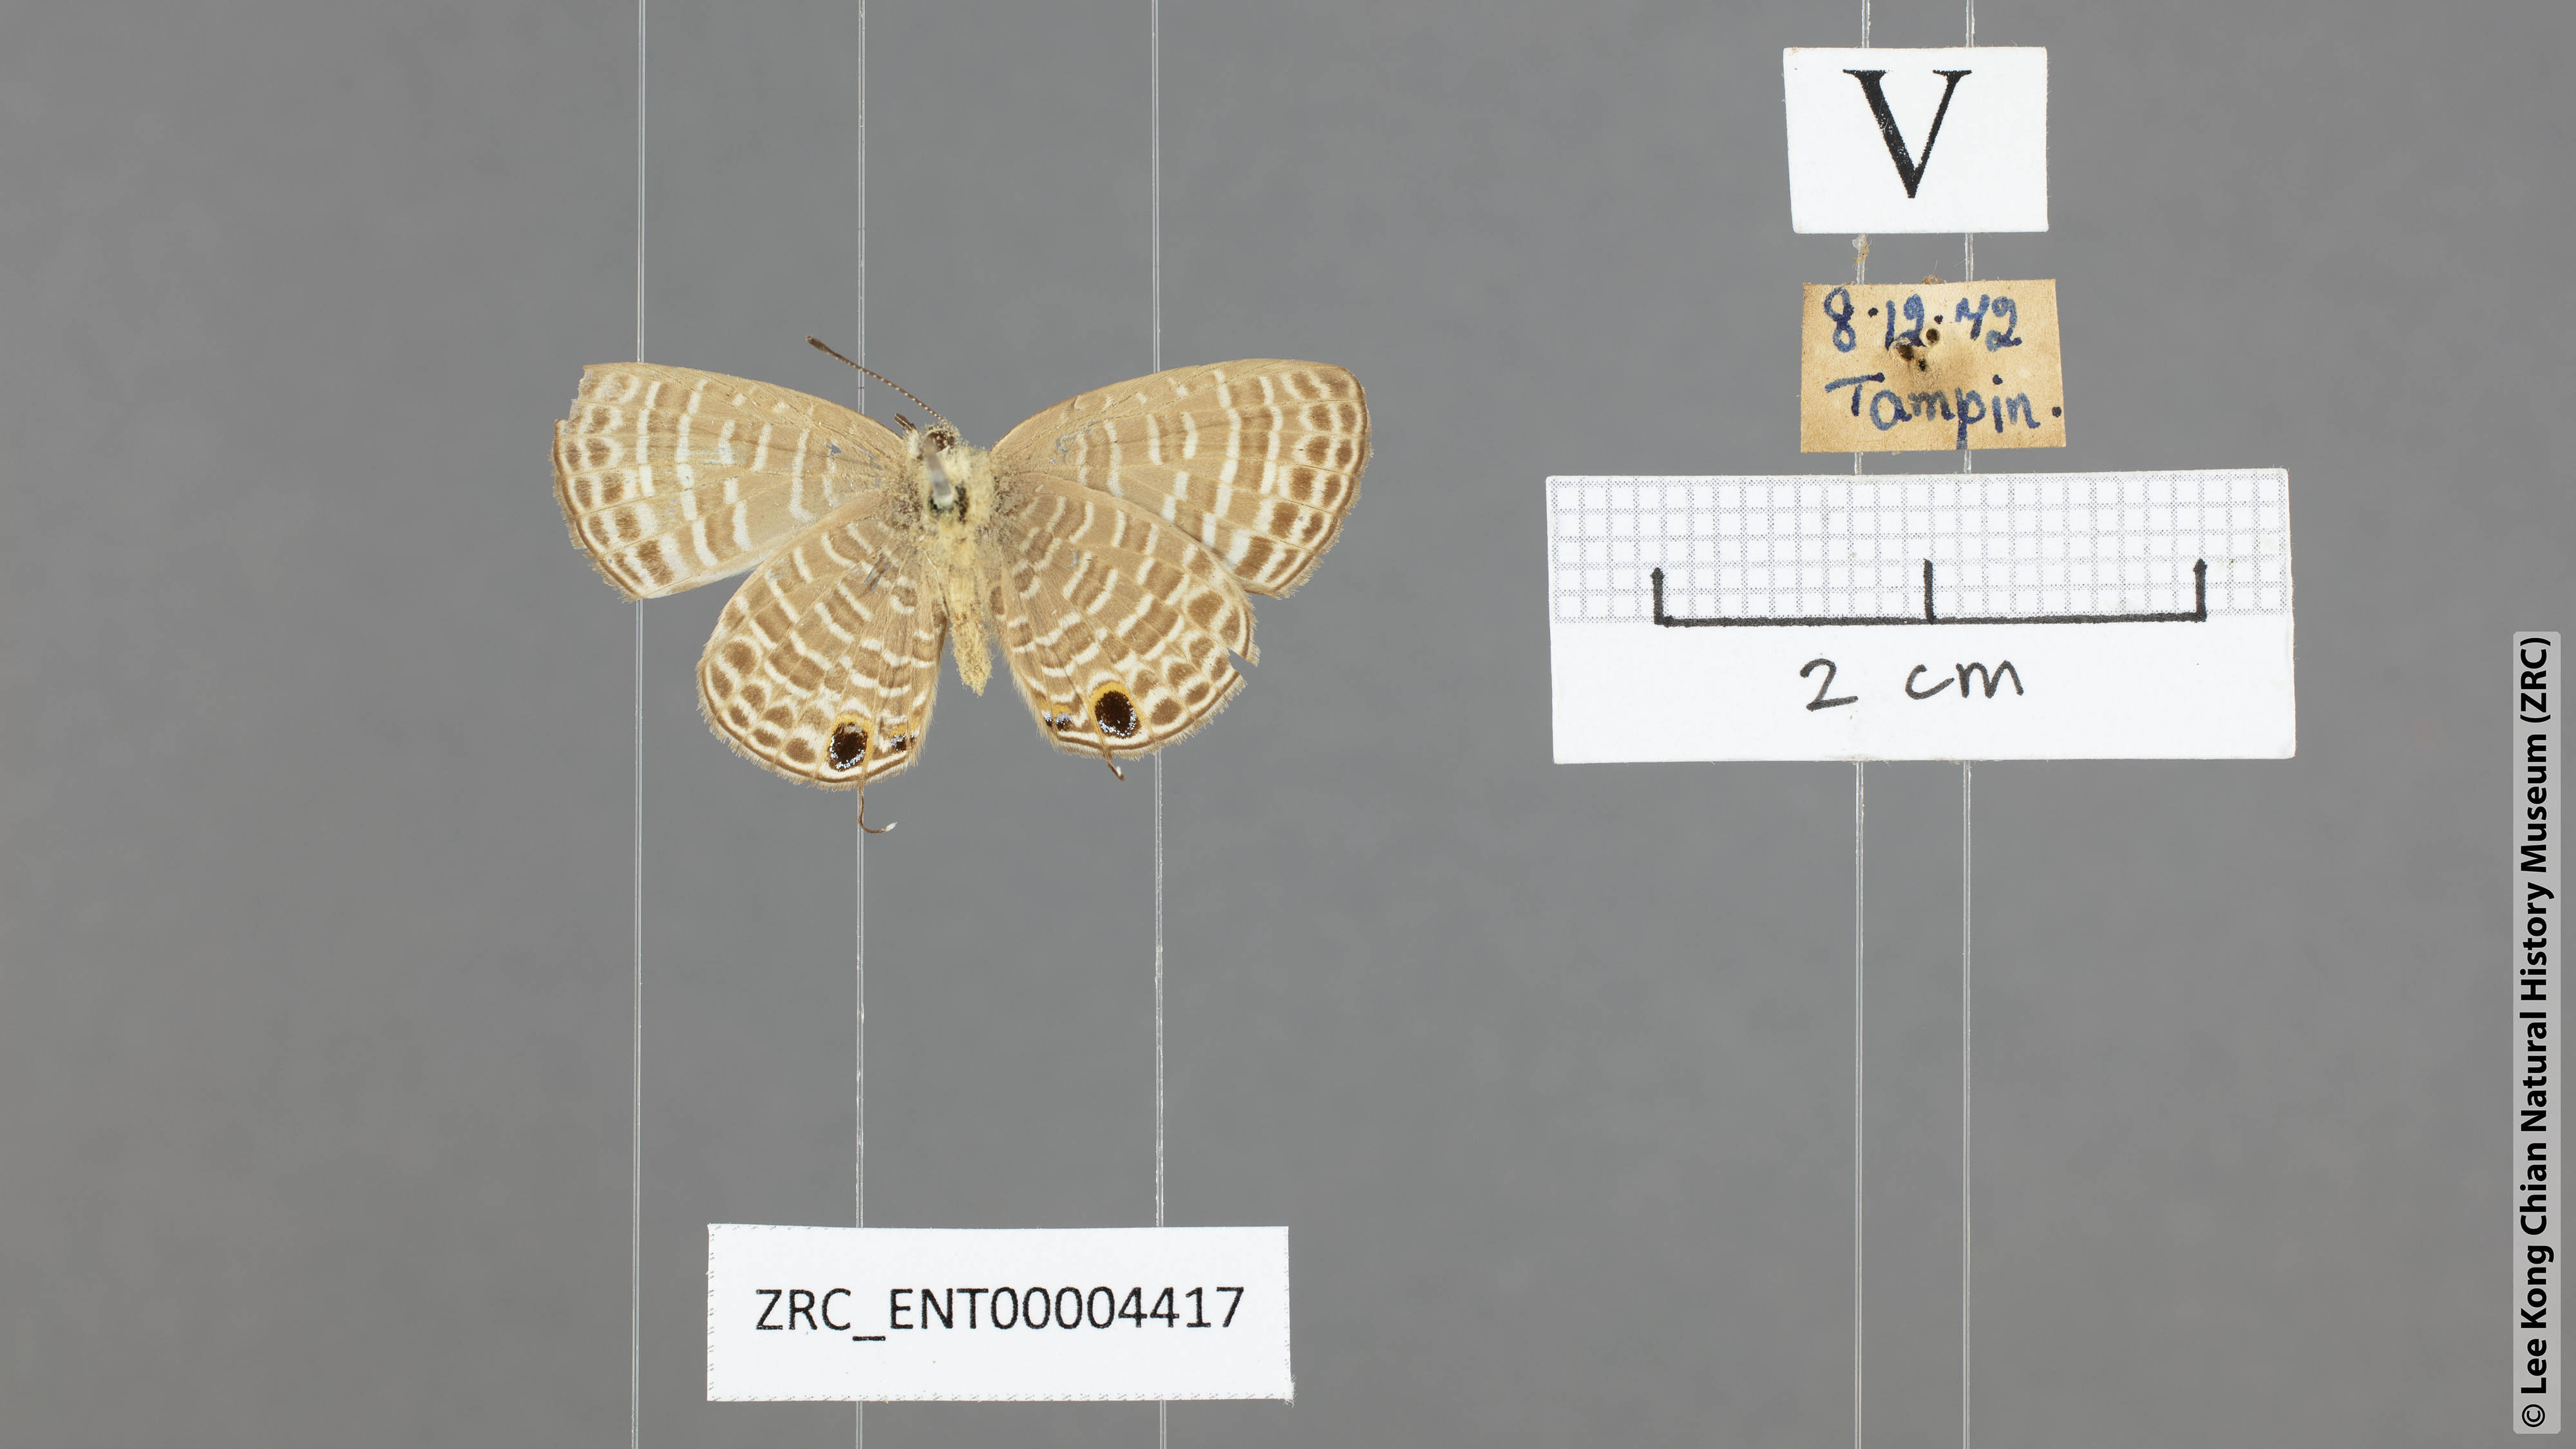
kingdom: Animalia
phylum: Arthropoda
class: Insecta
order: Lepidoptera
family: Lycaenidae
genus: Nacaduba
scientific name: Nacaduba subperusia
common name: Violet fourline blue
